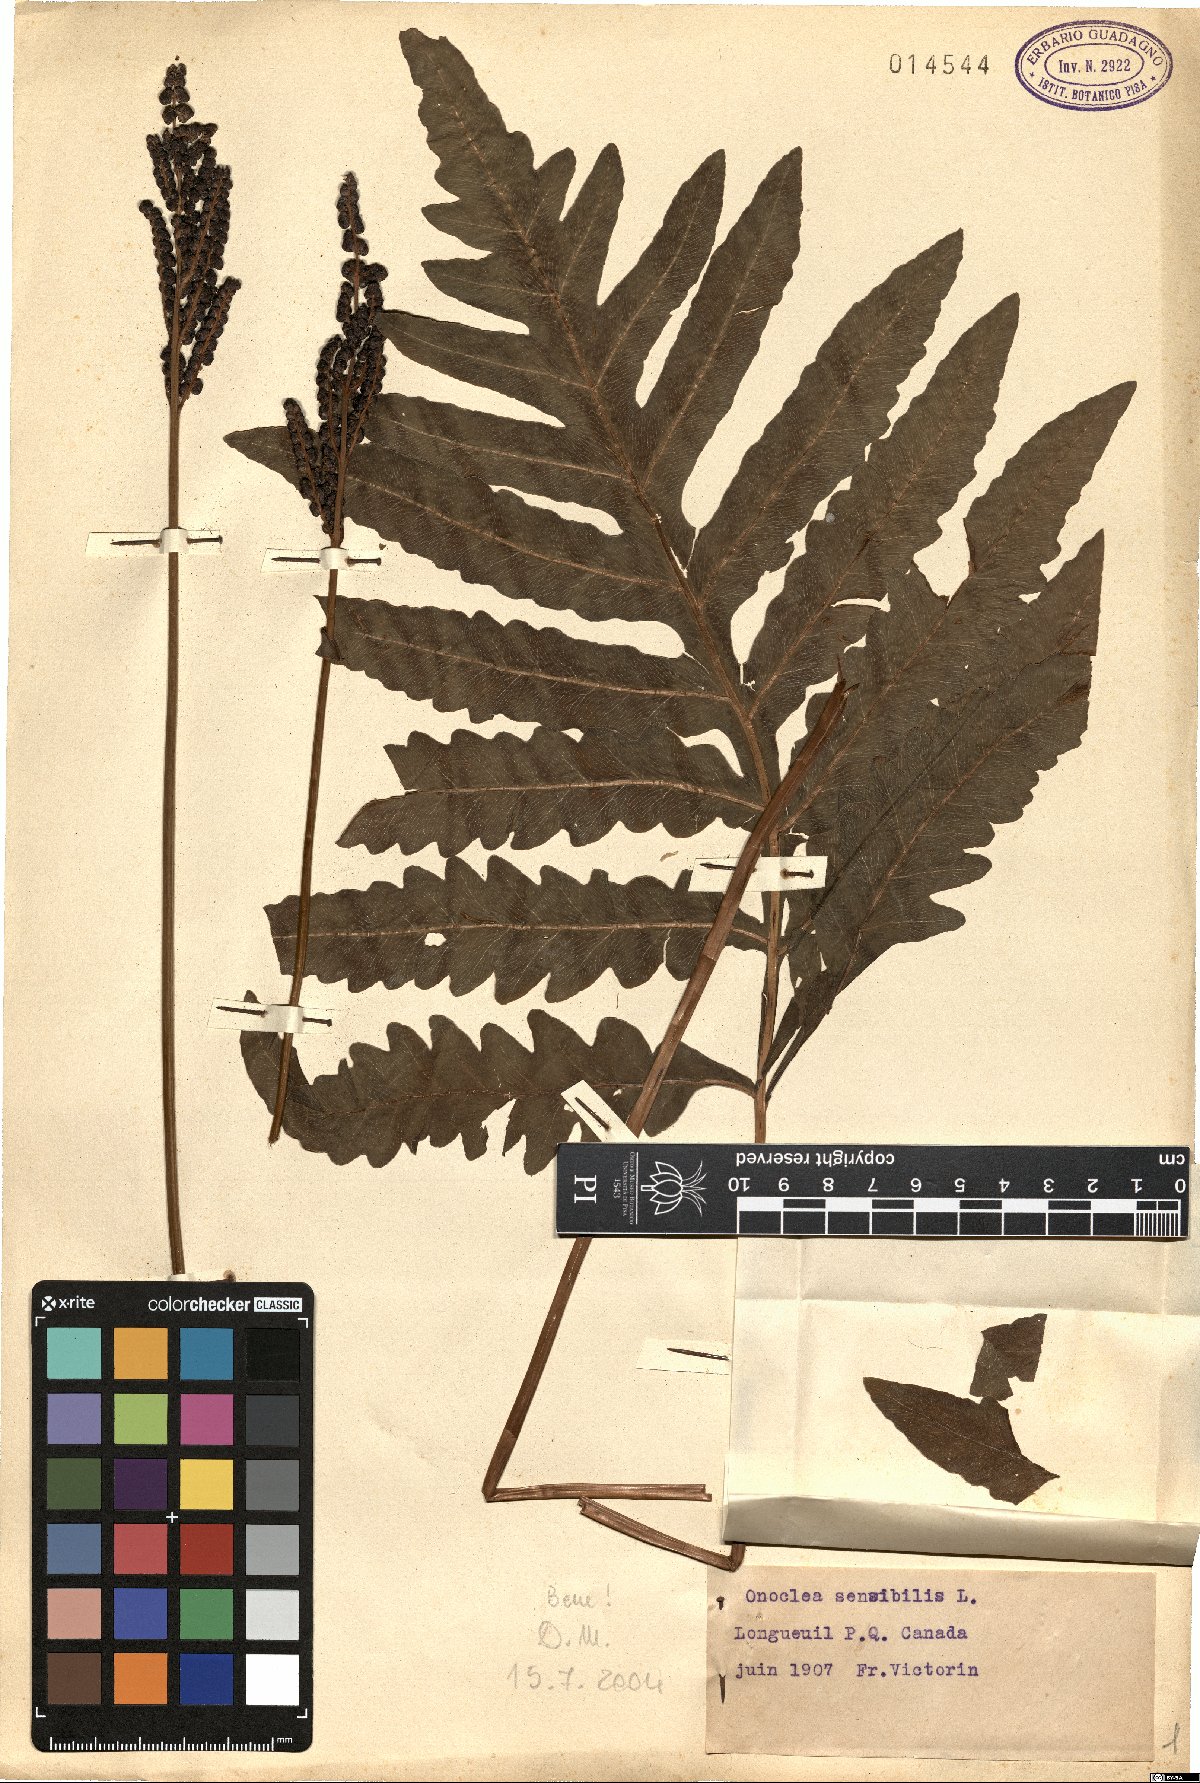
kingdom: Plantae
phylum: Tracheophyta
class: Polypodiopsida
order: Polypodiales
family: Onocleaceae
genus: Onoclea
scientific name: Onoclea sensibilis
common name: Sensitive fern
